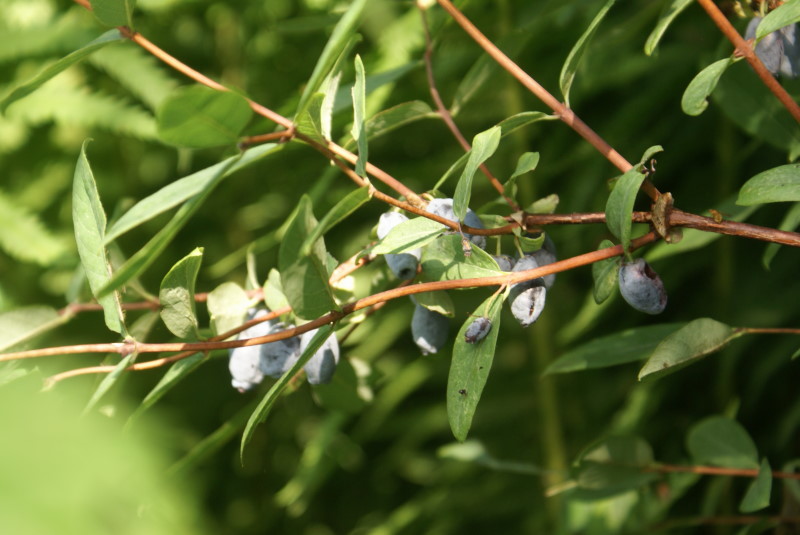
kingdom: Plantae
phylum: Tracheophyta
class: Magnoliopsida
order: Dipsacales
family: Caprifoliaceae
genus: Lonicera
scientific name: Lonicera caerulea
